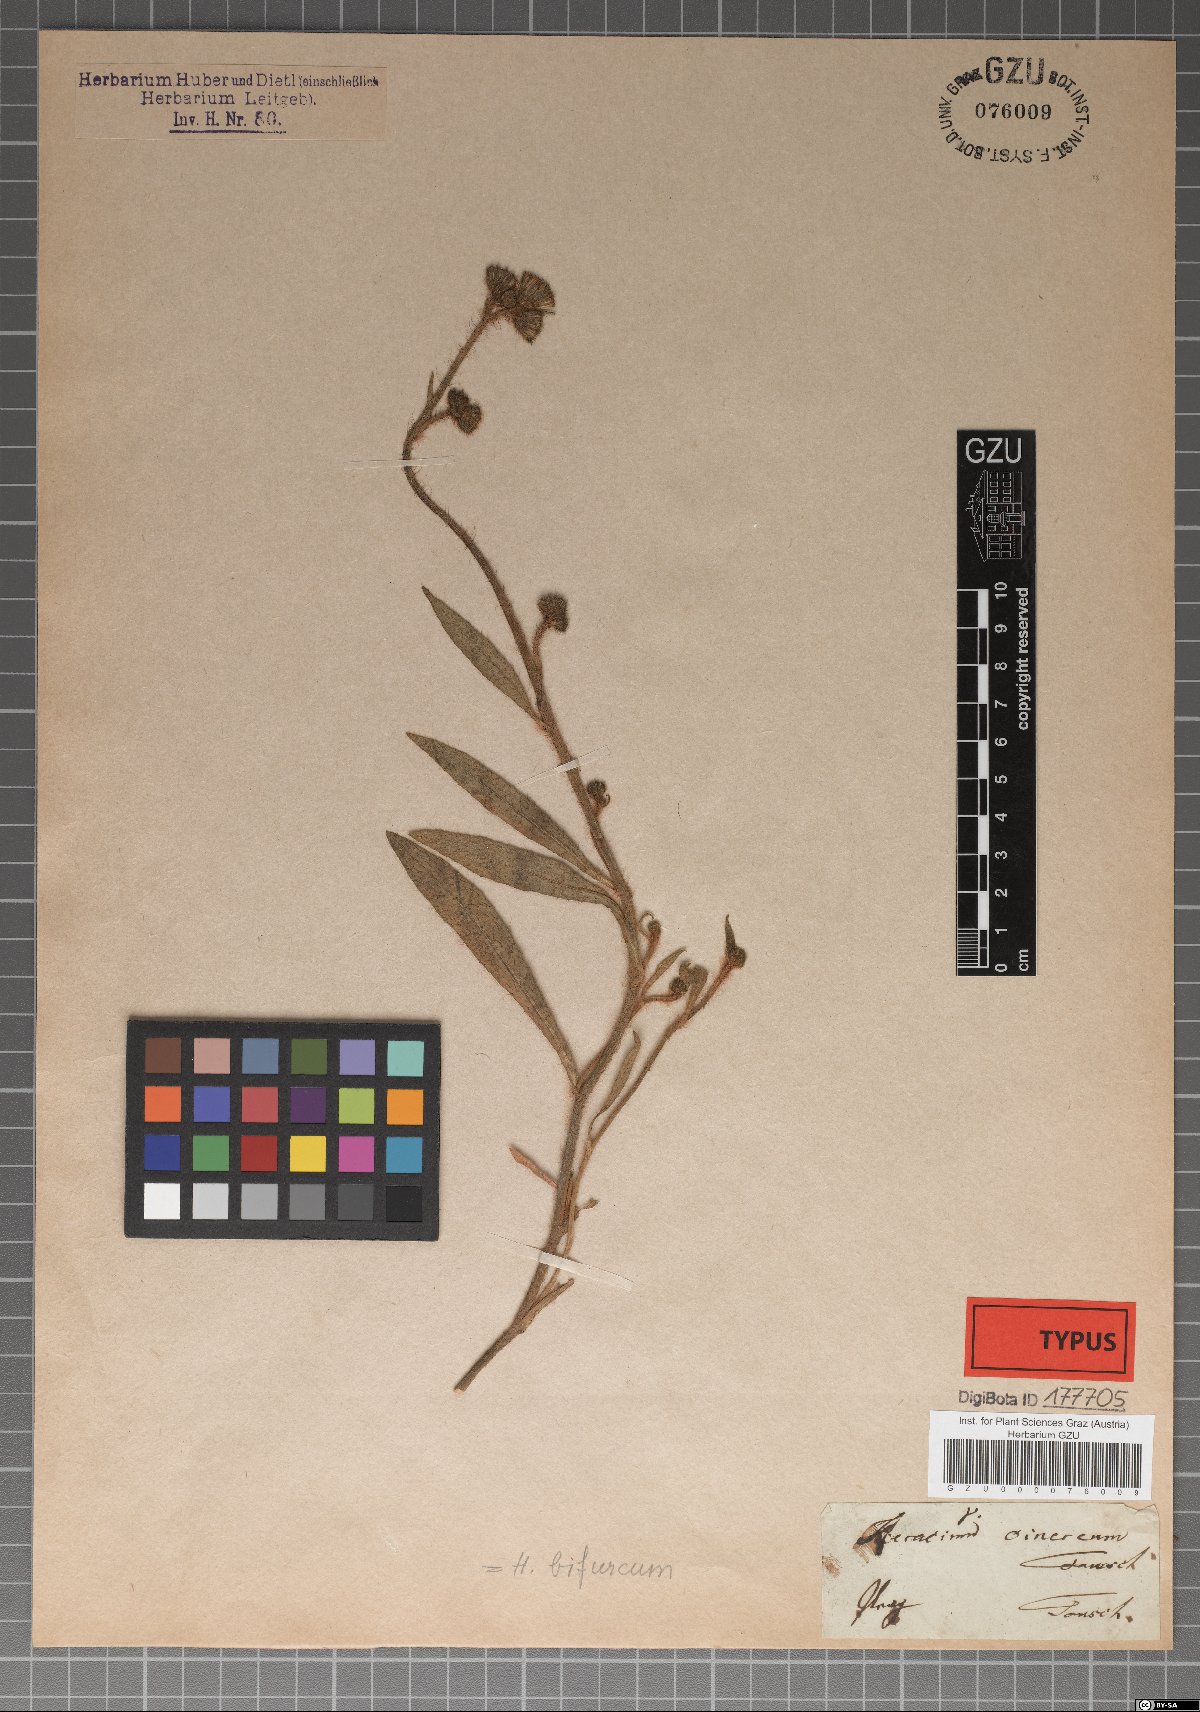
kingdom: Plantae
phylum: Tracheophyta
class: Magnoliopsida
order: Asterales
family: Asteraceae
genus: Pilosella
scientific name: Pilosella bifurca
